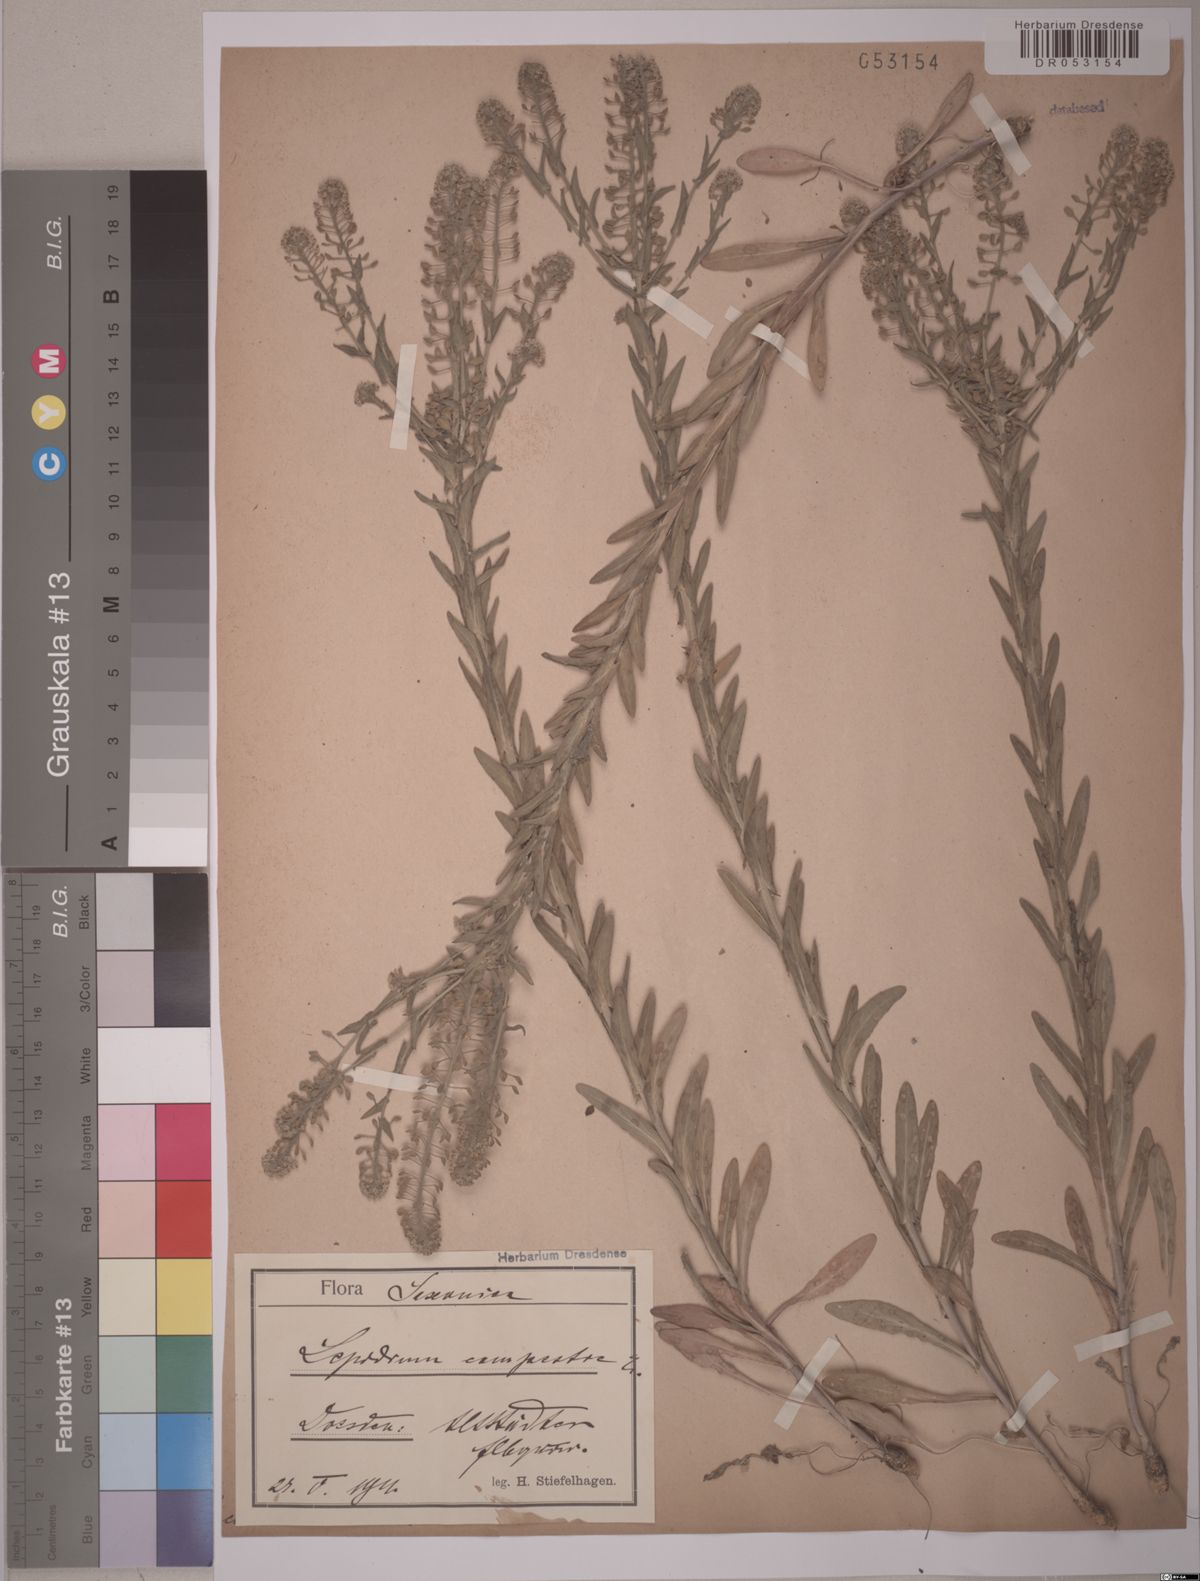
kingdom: Plantae
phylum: Tracheophyta
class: Magnoliopsida
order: Brassicales
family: Brassicaceae
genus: Lepidium
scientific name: Lepidium campestre
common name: Field pepperwort
